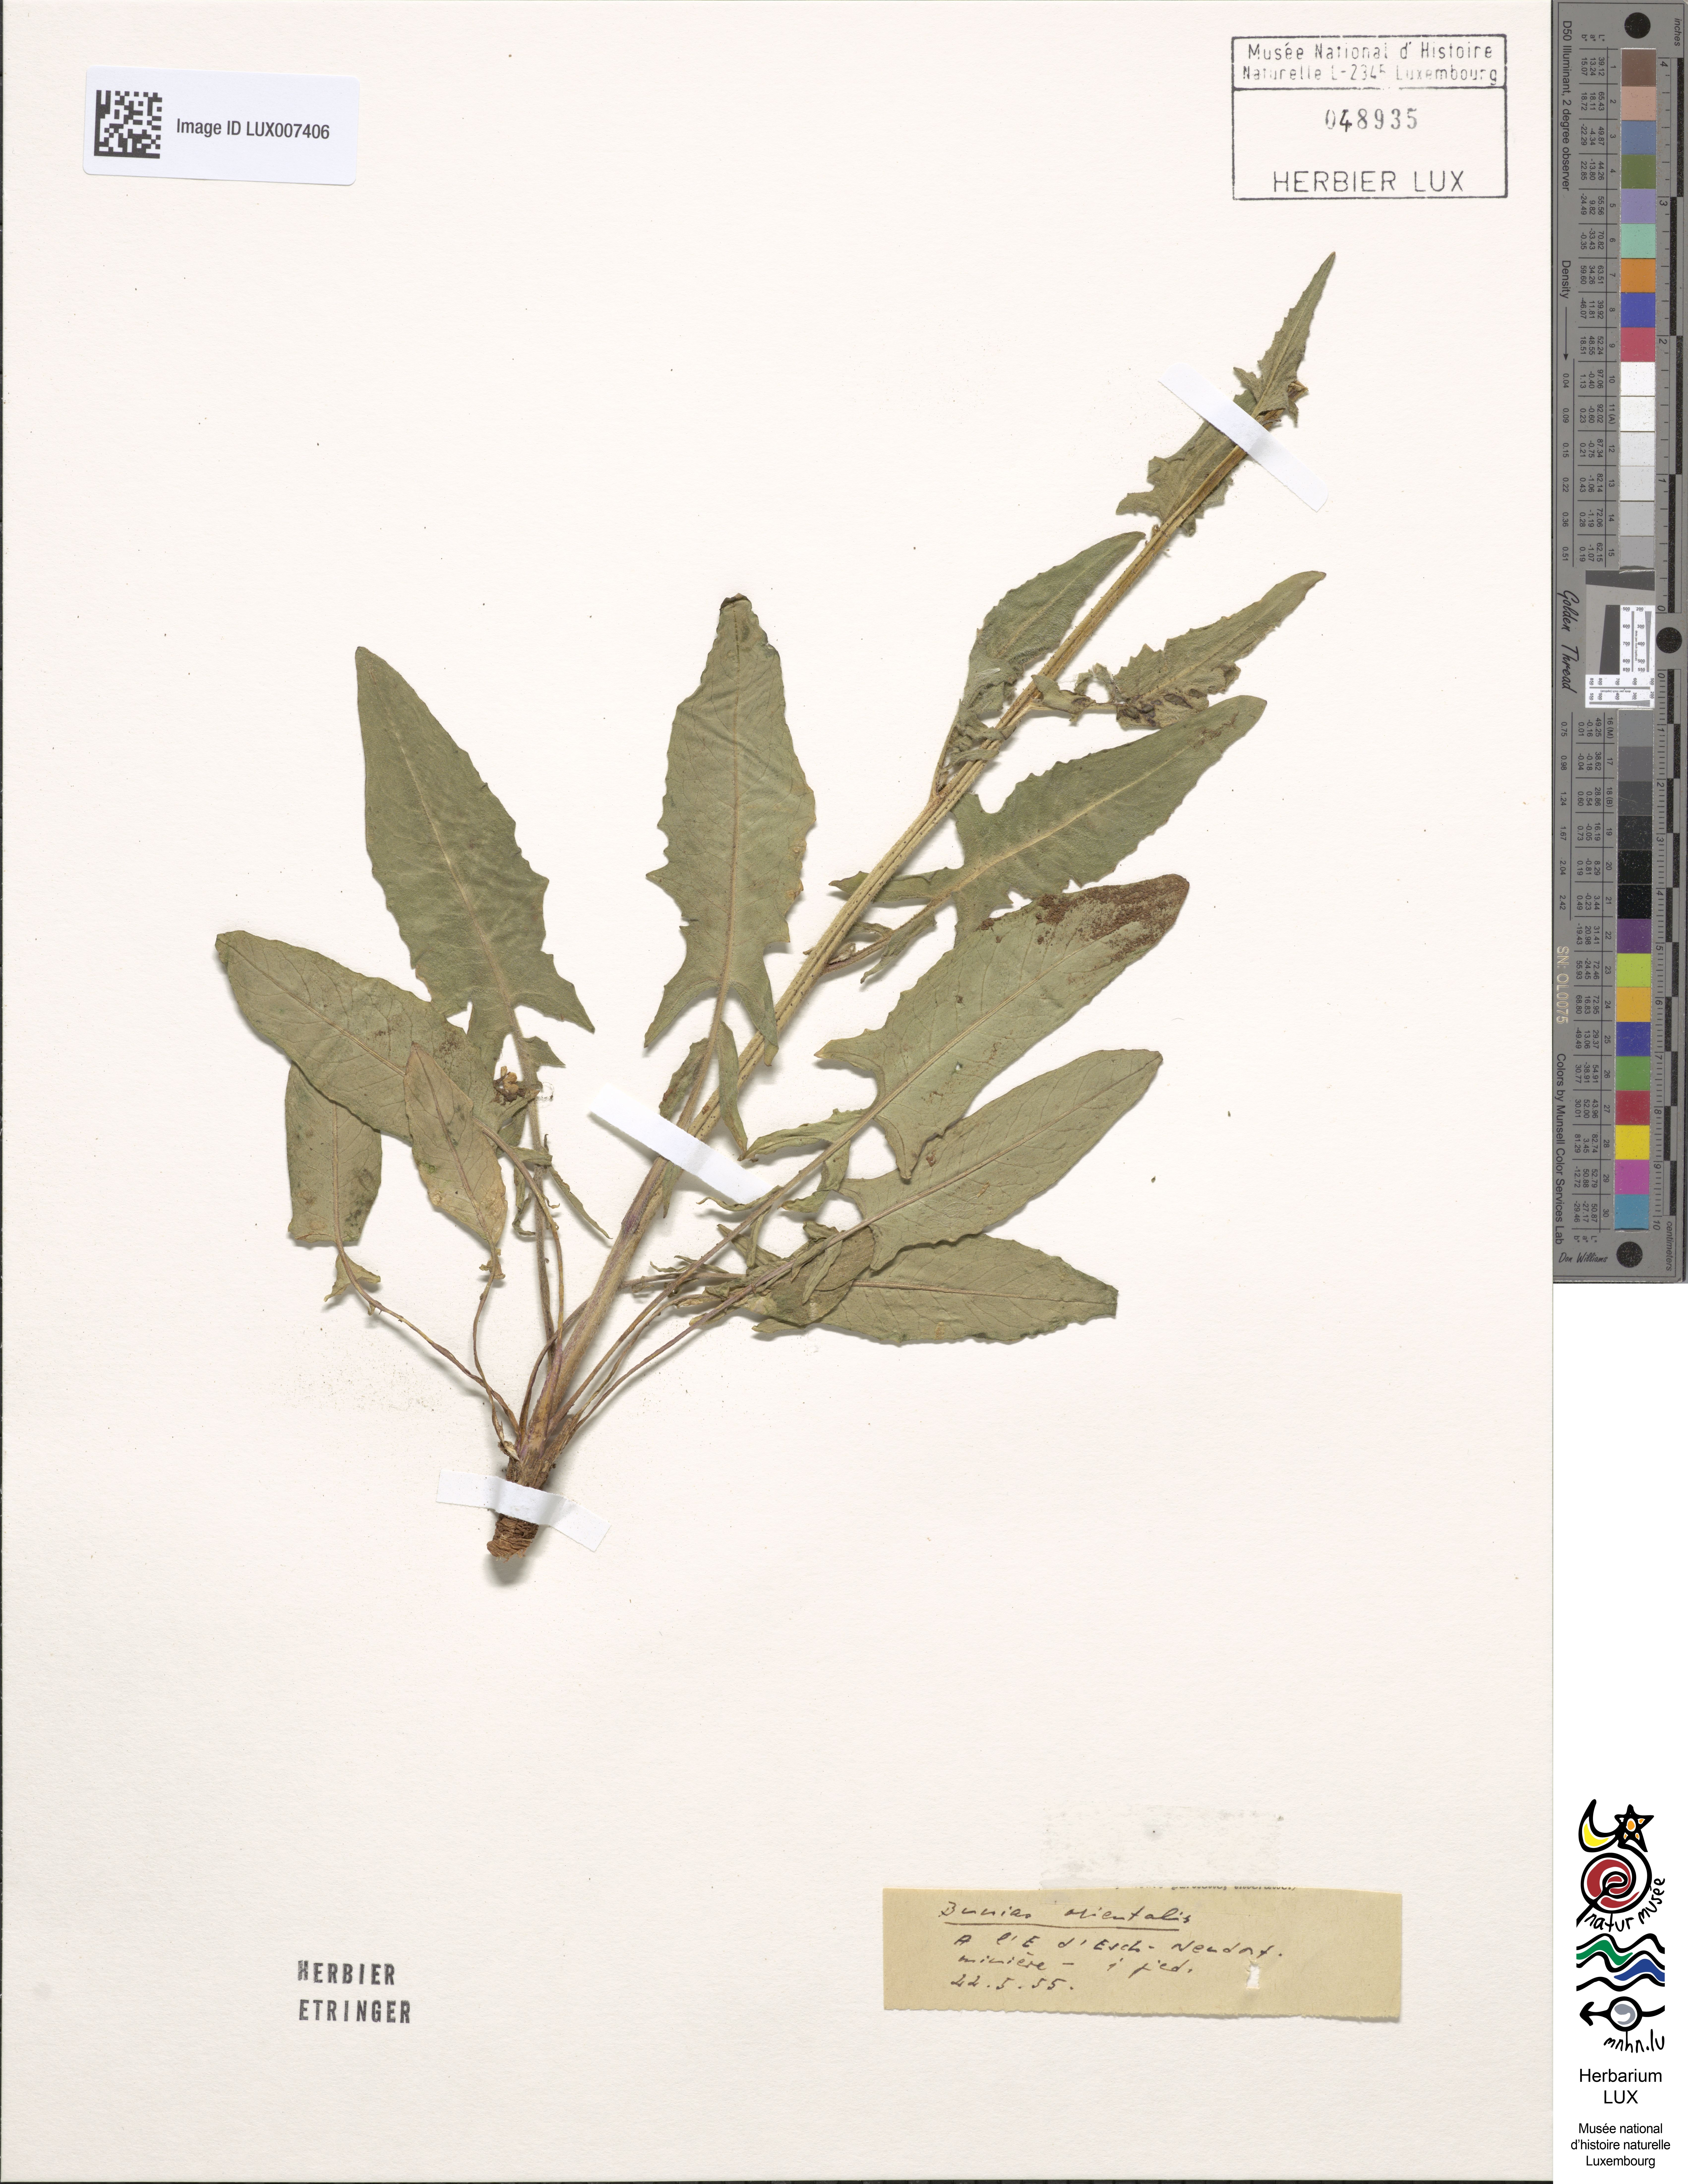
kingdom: Plantae
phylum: Tracheophyta
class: Magnoliopsida
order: Brassicales
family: Brassicaceae
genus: Bunias
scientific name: Bunias orientalis
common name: Warty-cabbage
